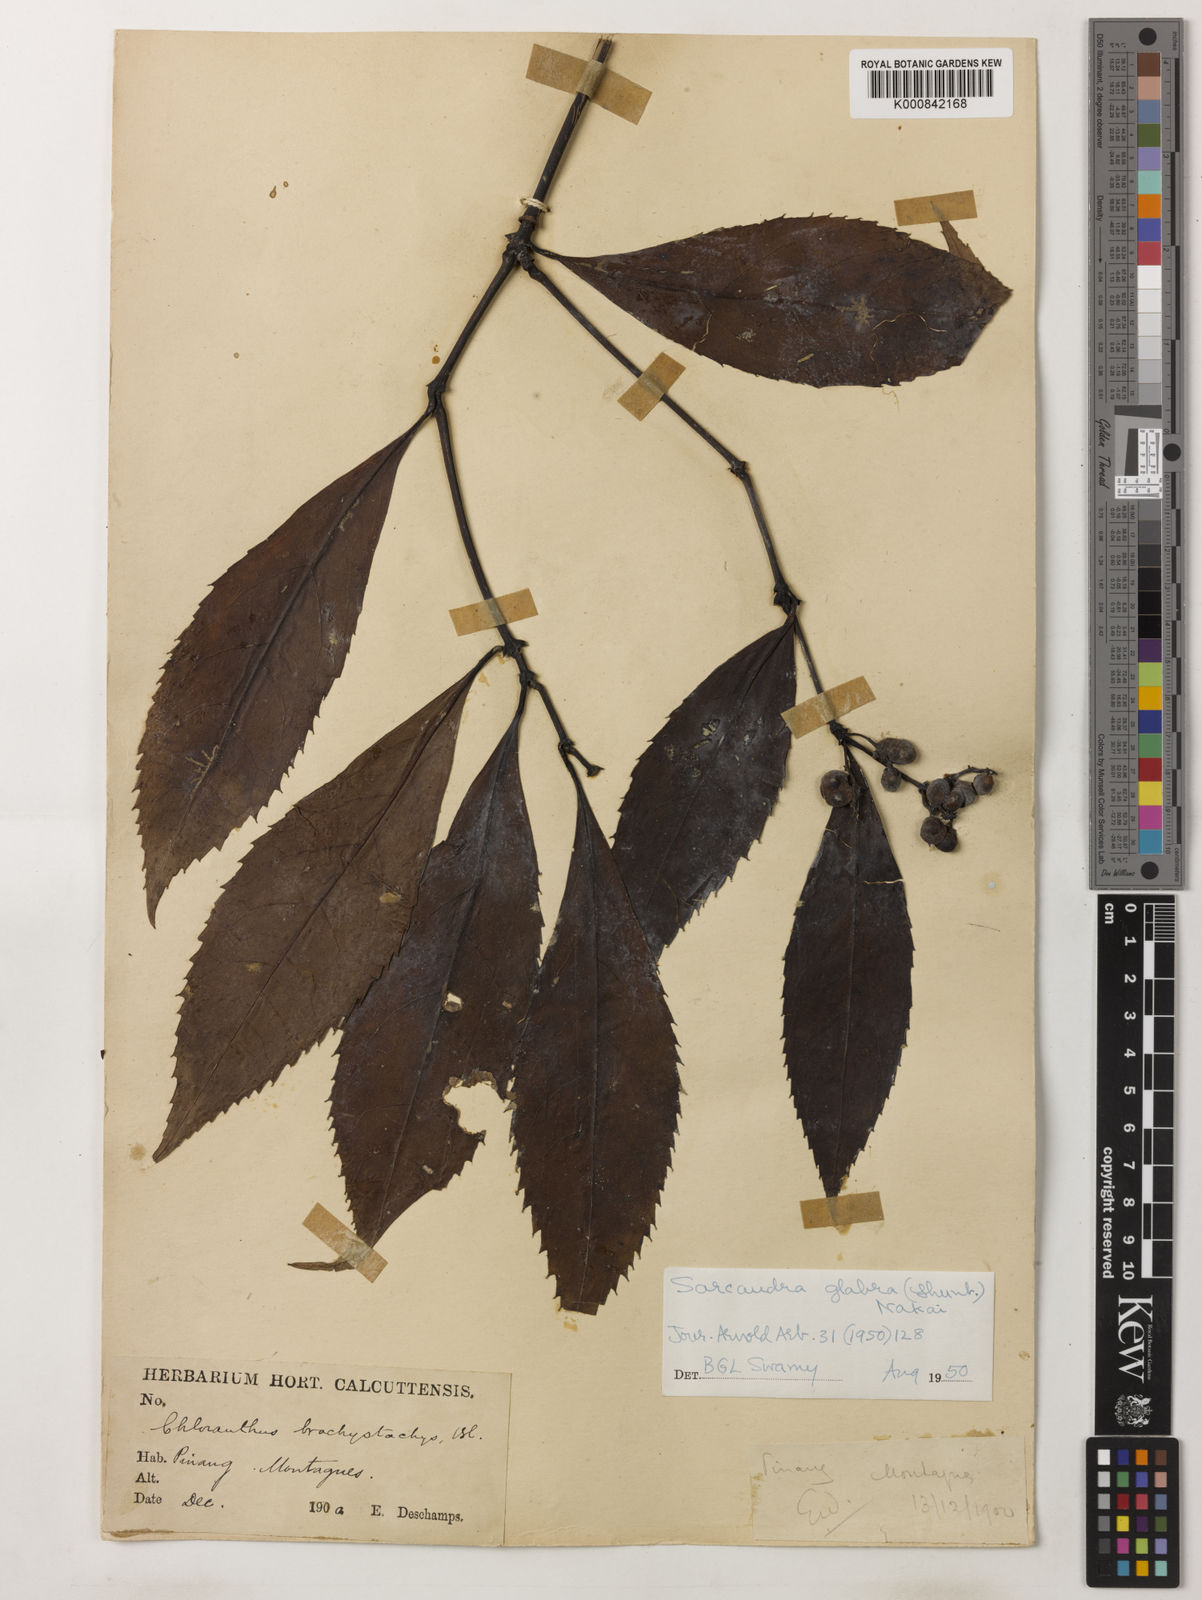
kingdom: Plantae
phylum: Tracheophyta
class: Magnoliopsida
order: Chloranthales
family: Chloranthaceae
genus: Sarcandra
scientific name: Sarcandra glabra
